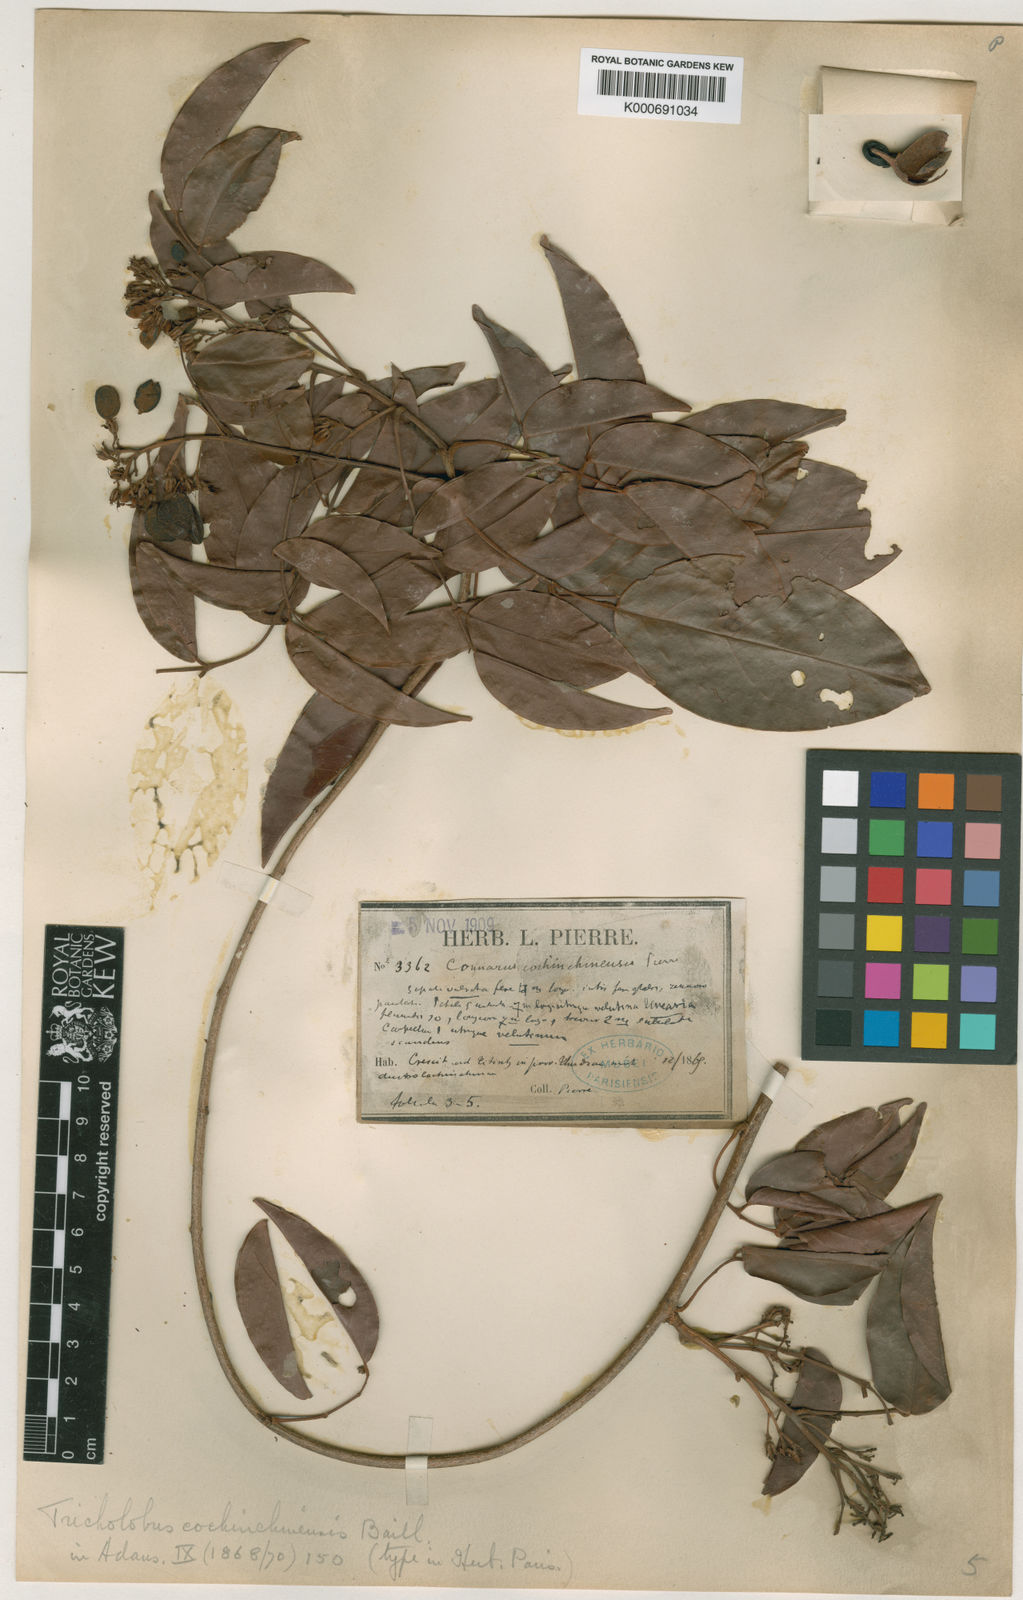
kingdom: Plantae
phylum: Tracheophyta
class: Magnoliopsida
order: Oxalidales
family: Connaraceae
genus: Connarus
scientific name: Connarus cochinchinensis
